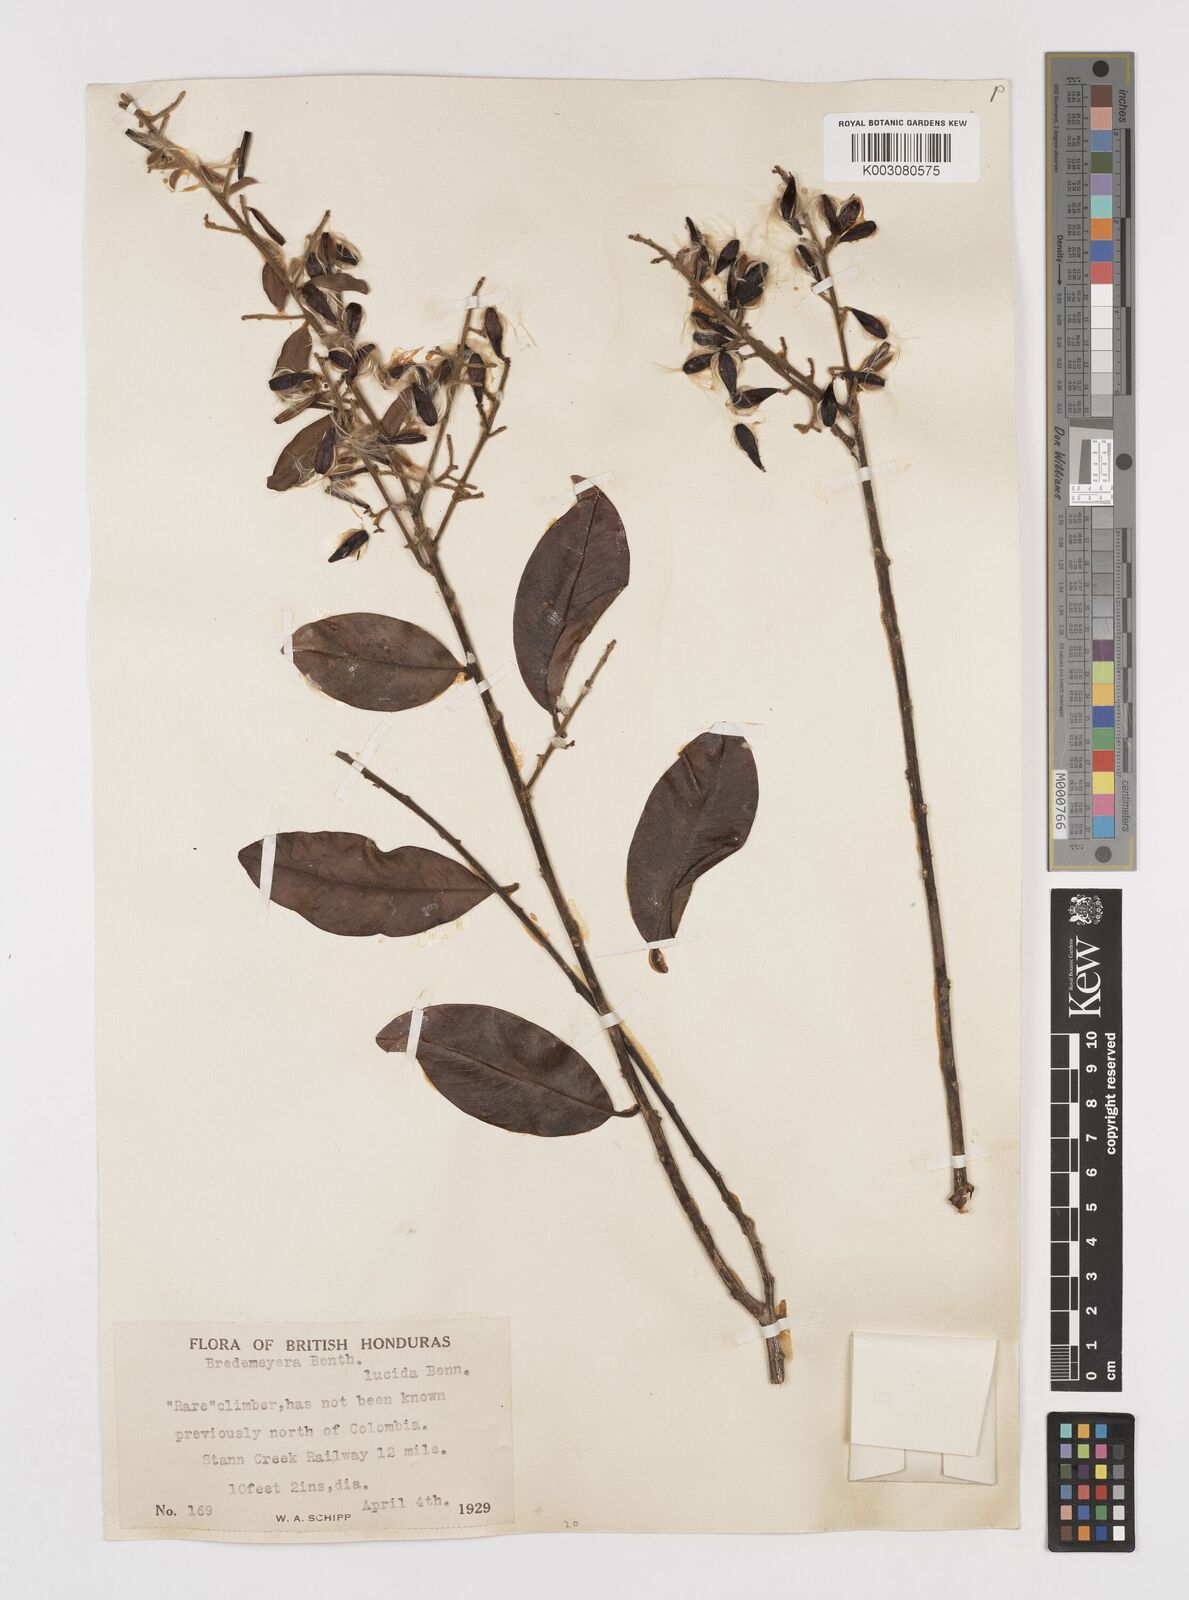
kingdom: Plantae
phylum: Tracheophyta
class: Magnoliopsida
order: Fabales
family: Polygalaceae
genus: Bredemeyera
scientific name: Bredemeyera lucida
